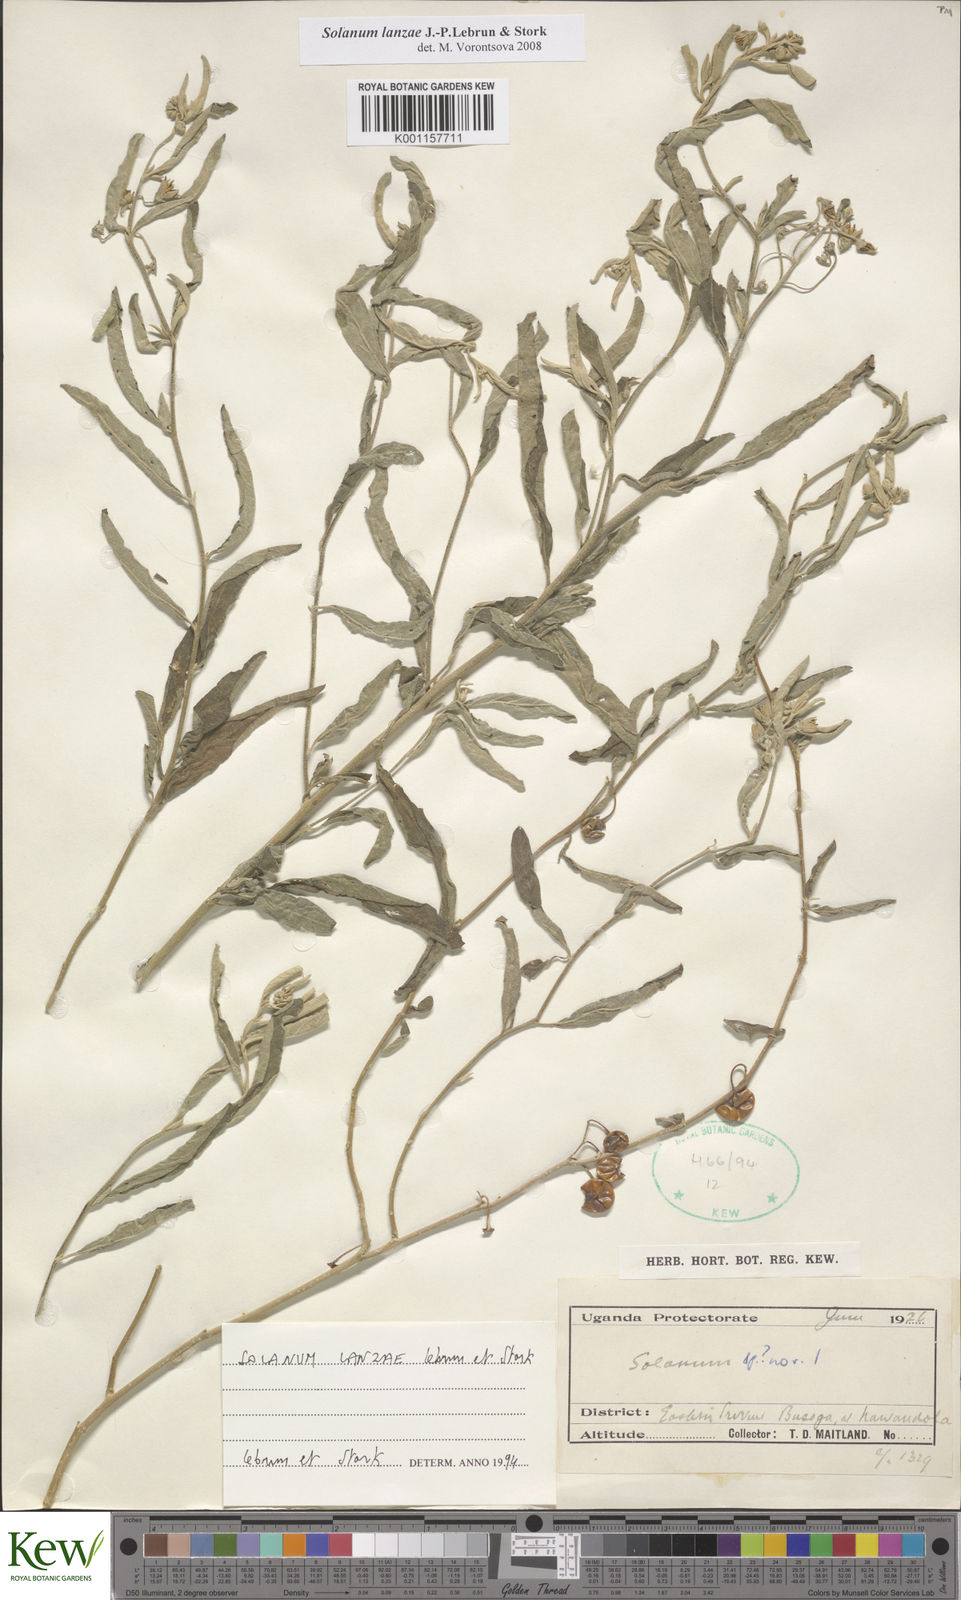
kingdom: Plantae
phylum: Tracheophyta
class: Magnoliopsida
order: Solanales
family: Solanaceae
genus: Solanum
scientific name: Solanum lanzae
